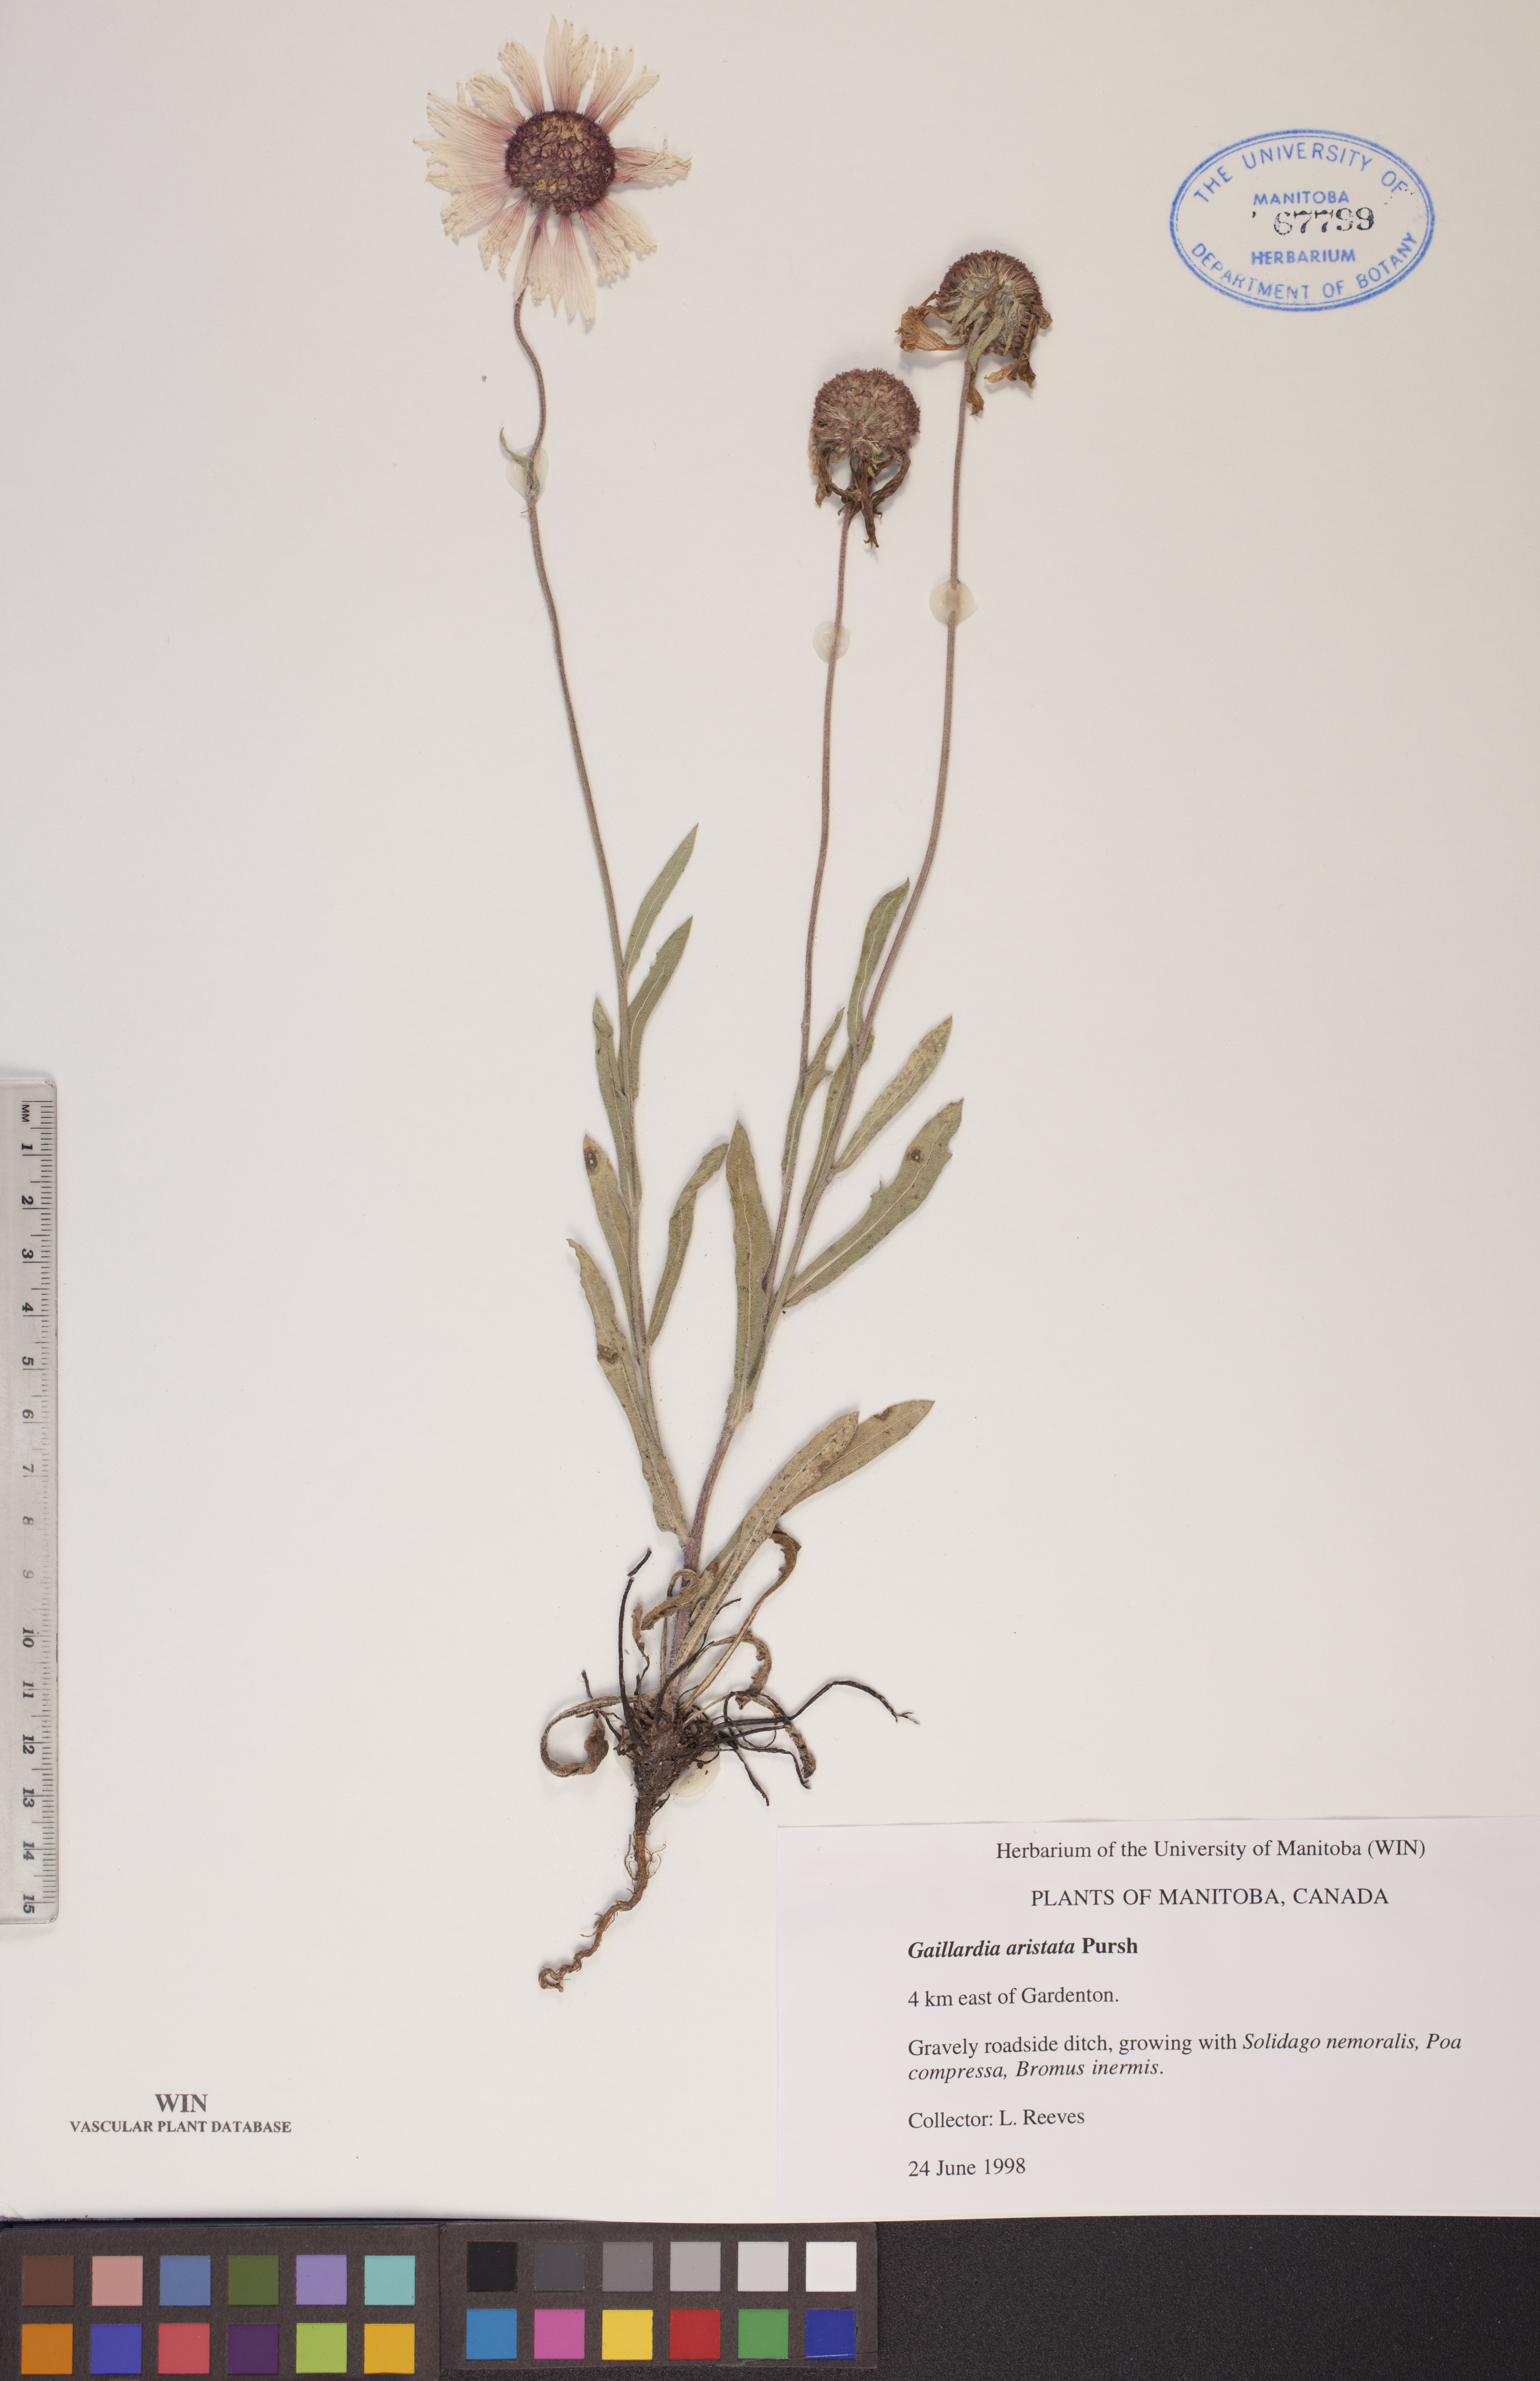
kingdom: Plantae
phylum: Tracheophyta
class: Magnoliopsida
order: Asterales
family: Asteraceae
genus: Gaillardia
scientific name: Gaillardia aristata
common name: Blanket-flower
